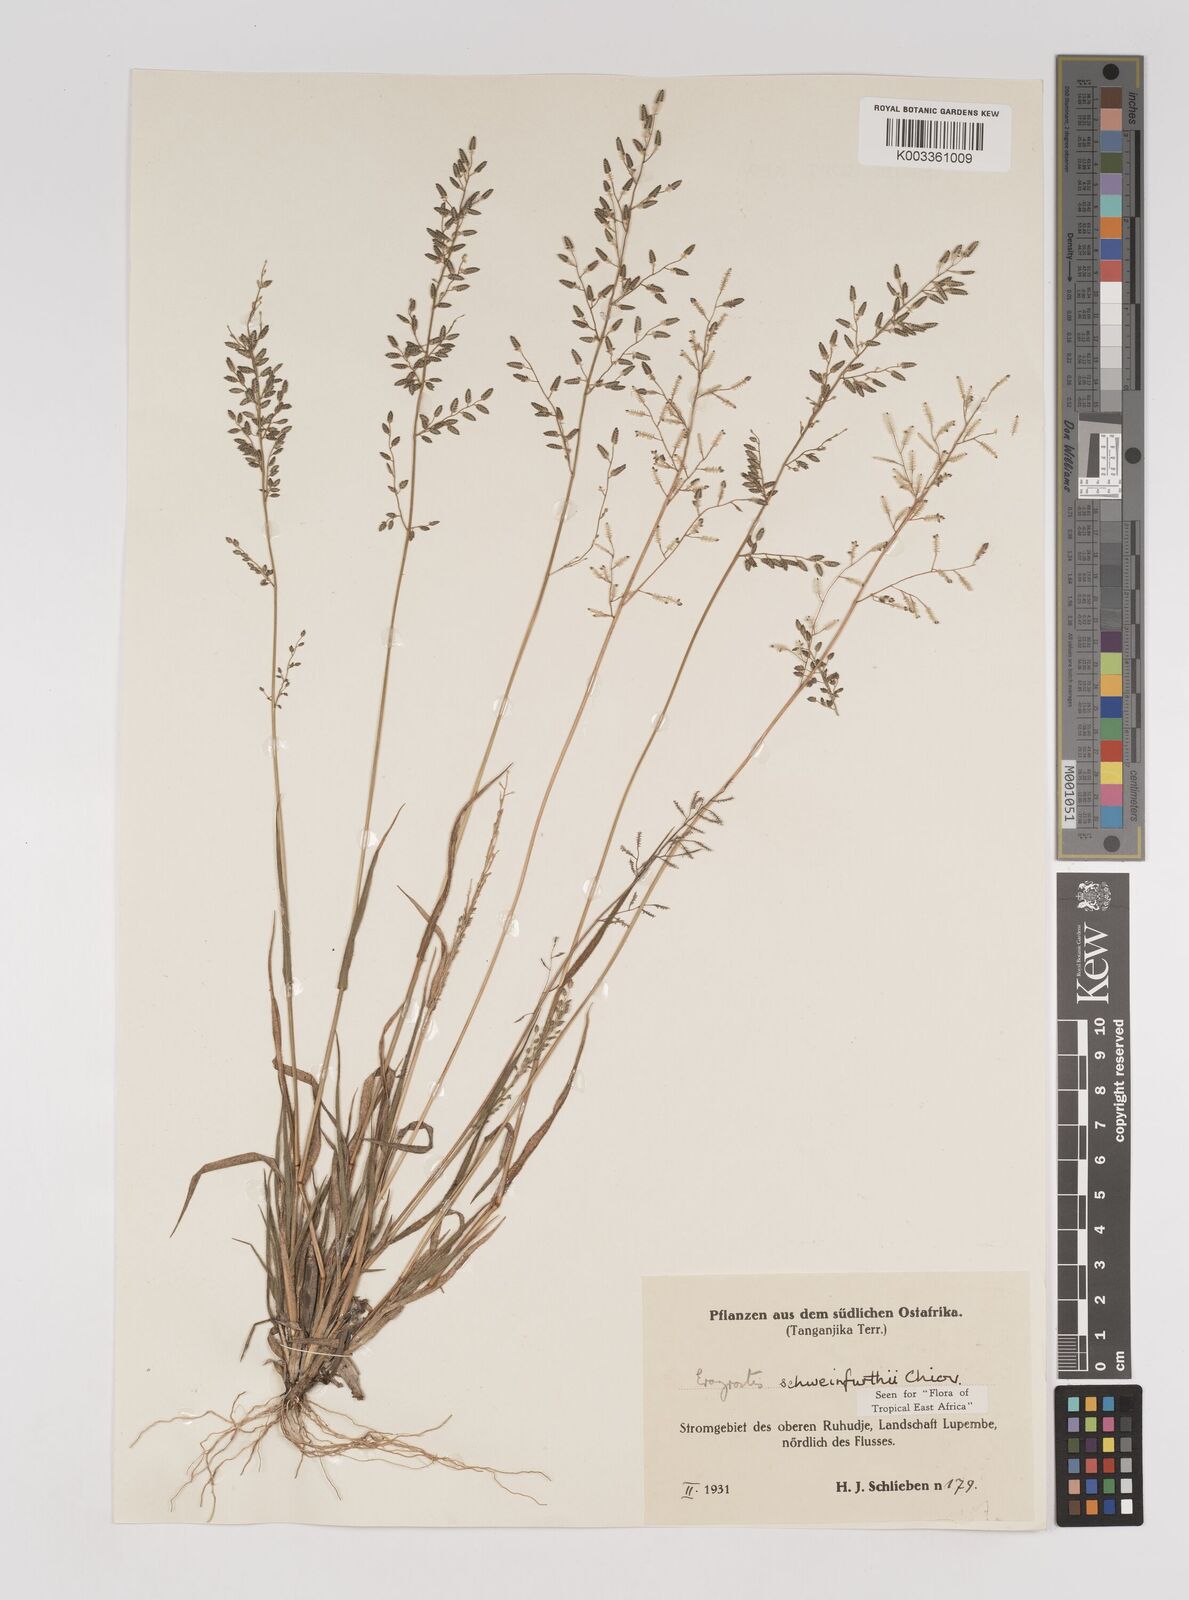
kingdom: Plantae
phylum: Tracheophyta
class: Liliopsida
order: Poales
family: Poaceae
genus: Eragrostis
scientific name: Eragrostis schweinfurthii
